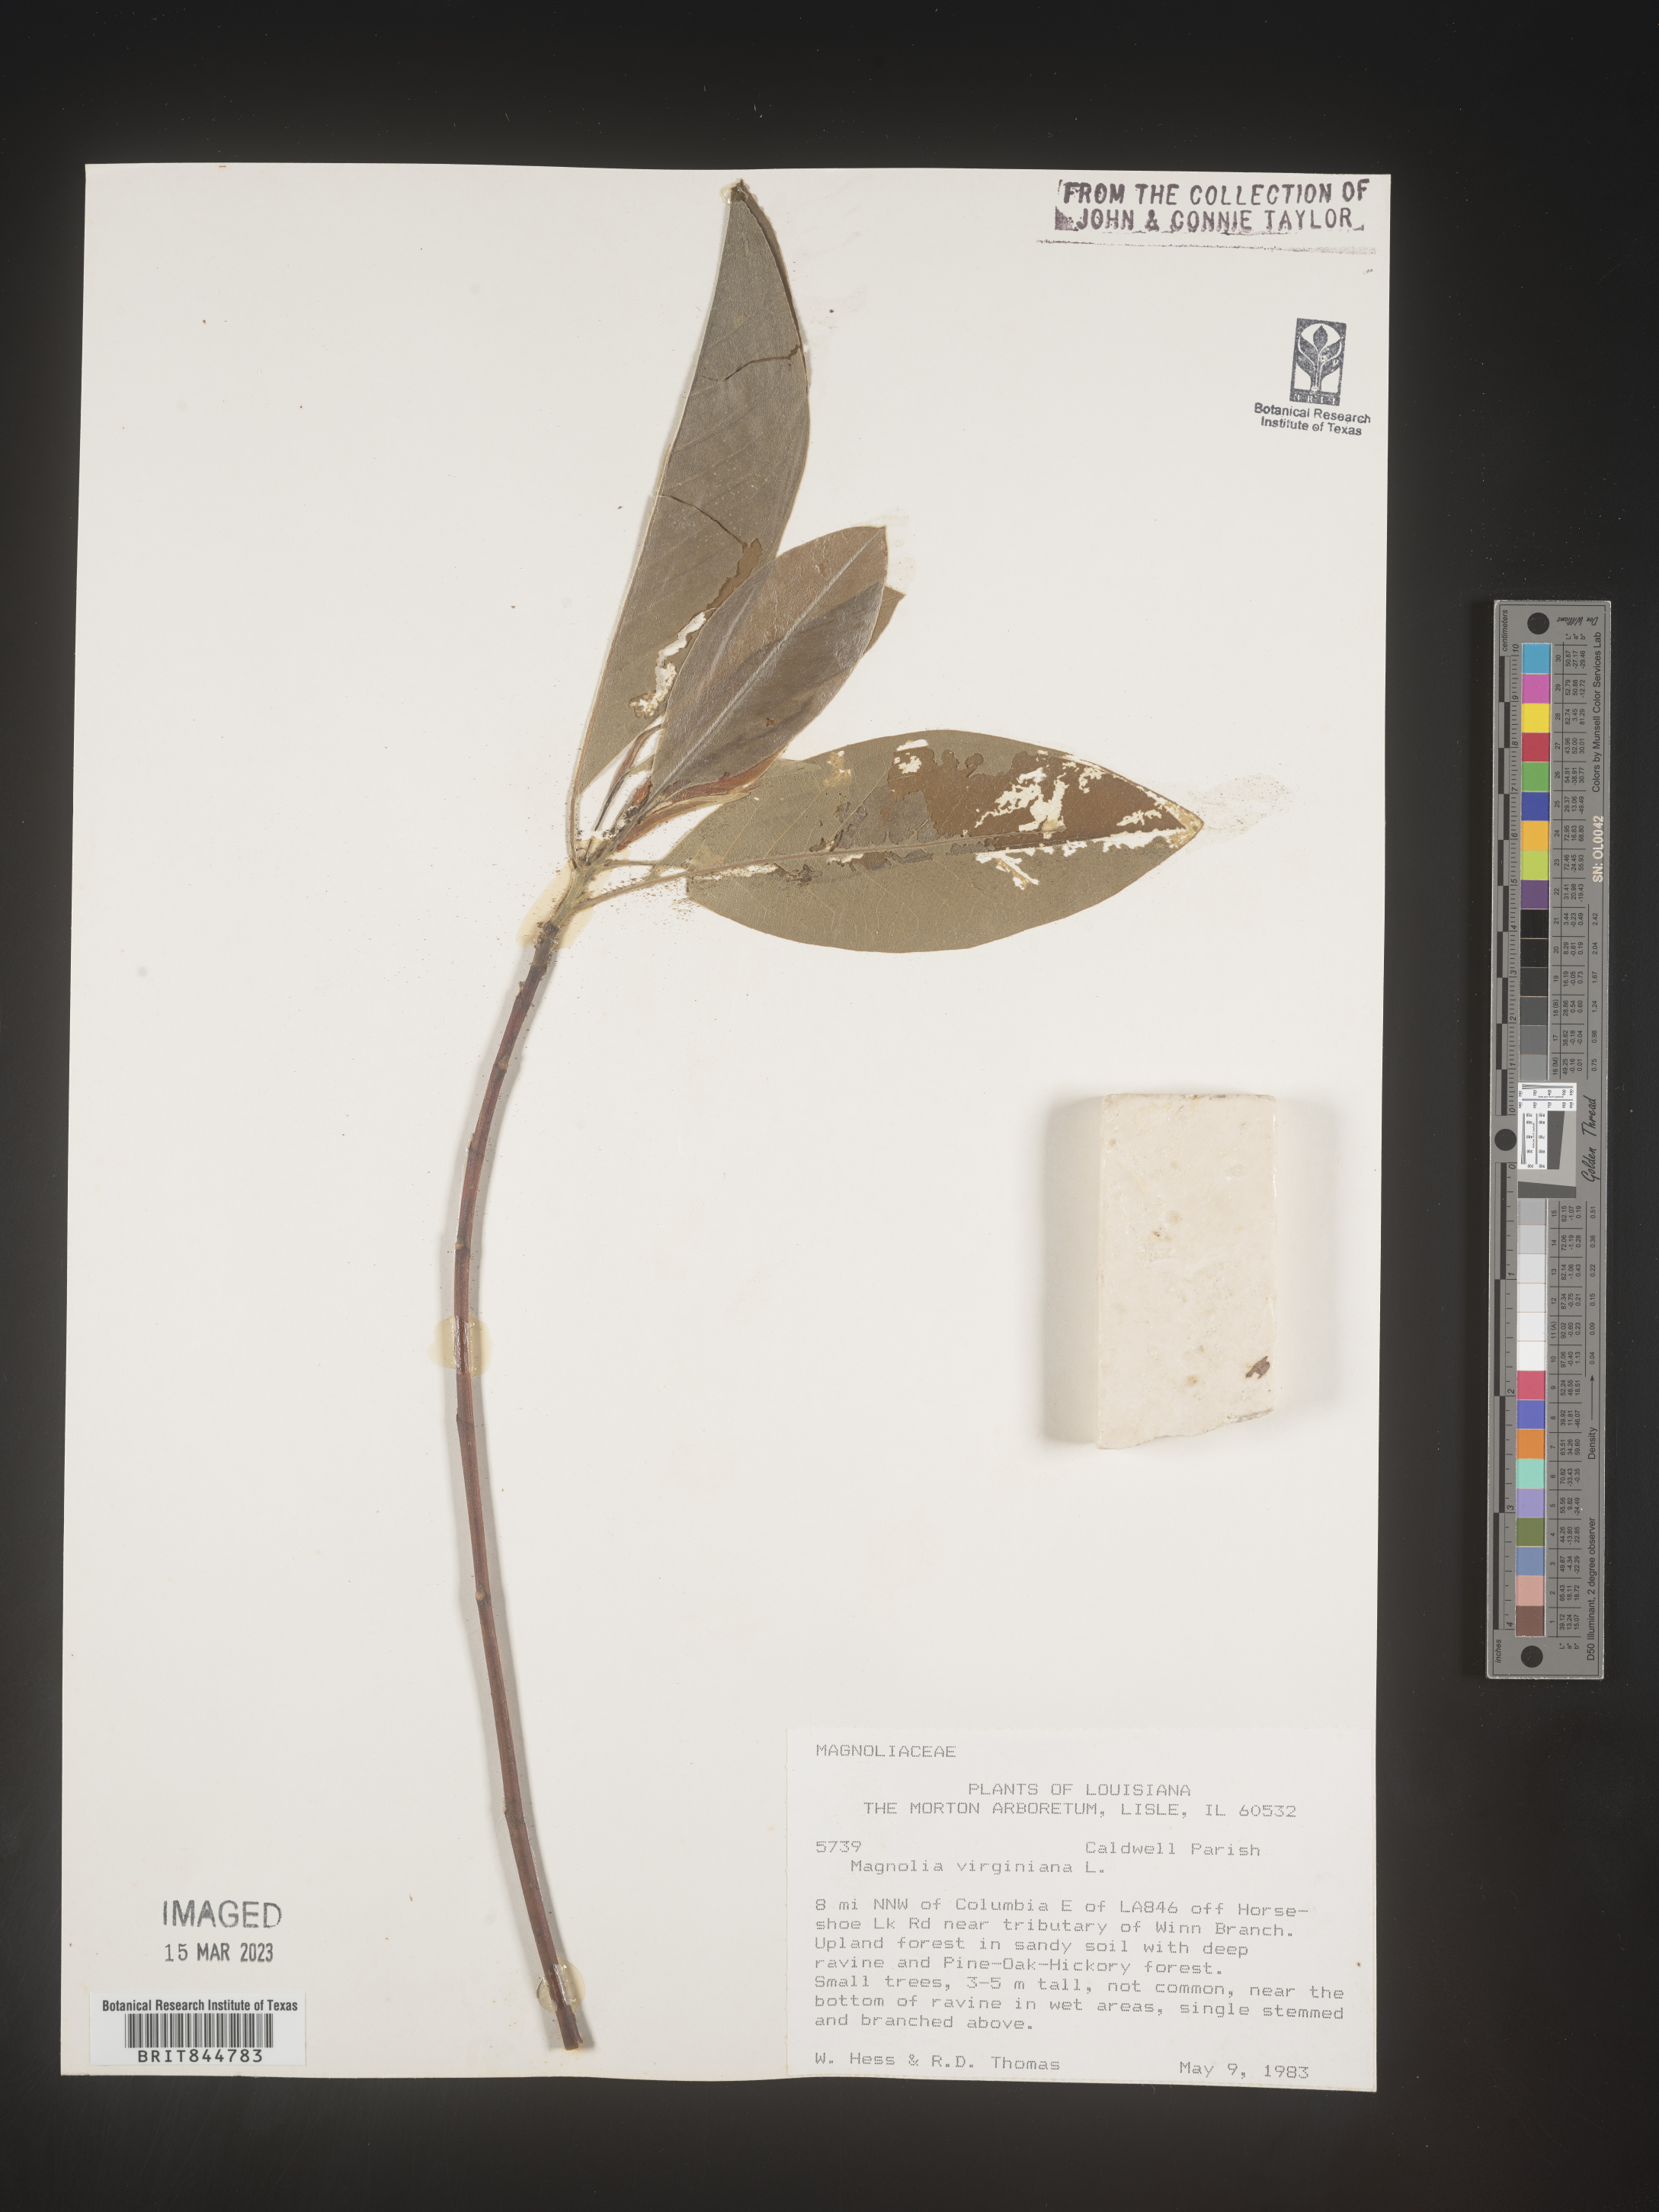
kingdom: Plantae
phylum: Tracheophyta
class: Magnoliopsida
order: Magnoliales
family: Magnoliaceae
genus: Magnolia
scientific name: Magnolia virginiana
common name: Swamp bay
